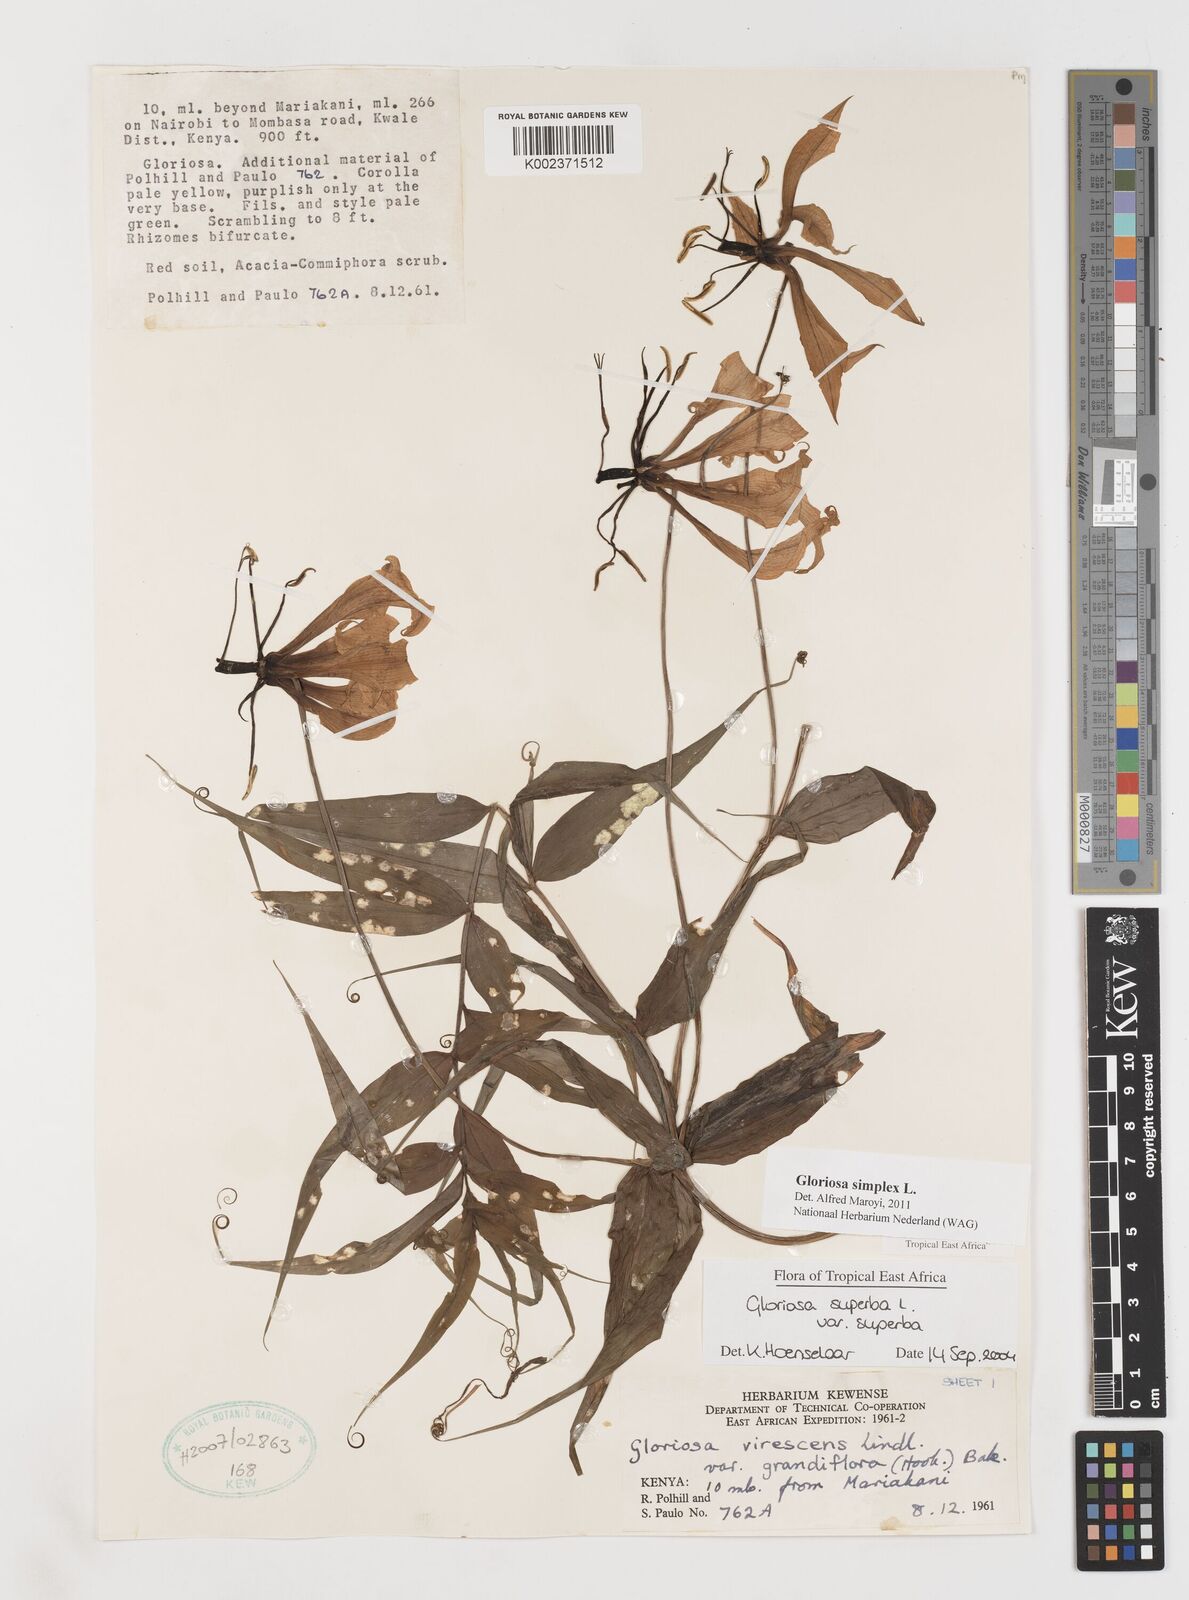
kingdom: Plantae
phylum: Tracheophyta
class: Liliopsida
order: Liliales
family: Colchicaceae
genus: Gloriosa
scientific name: Gloriosa simplex
